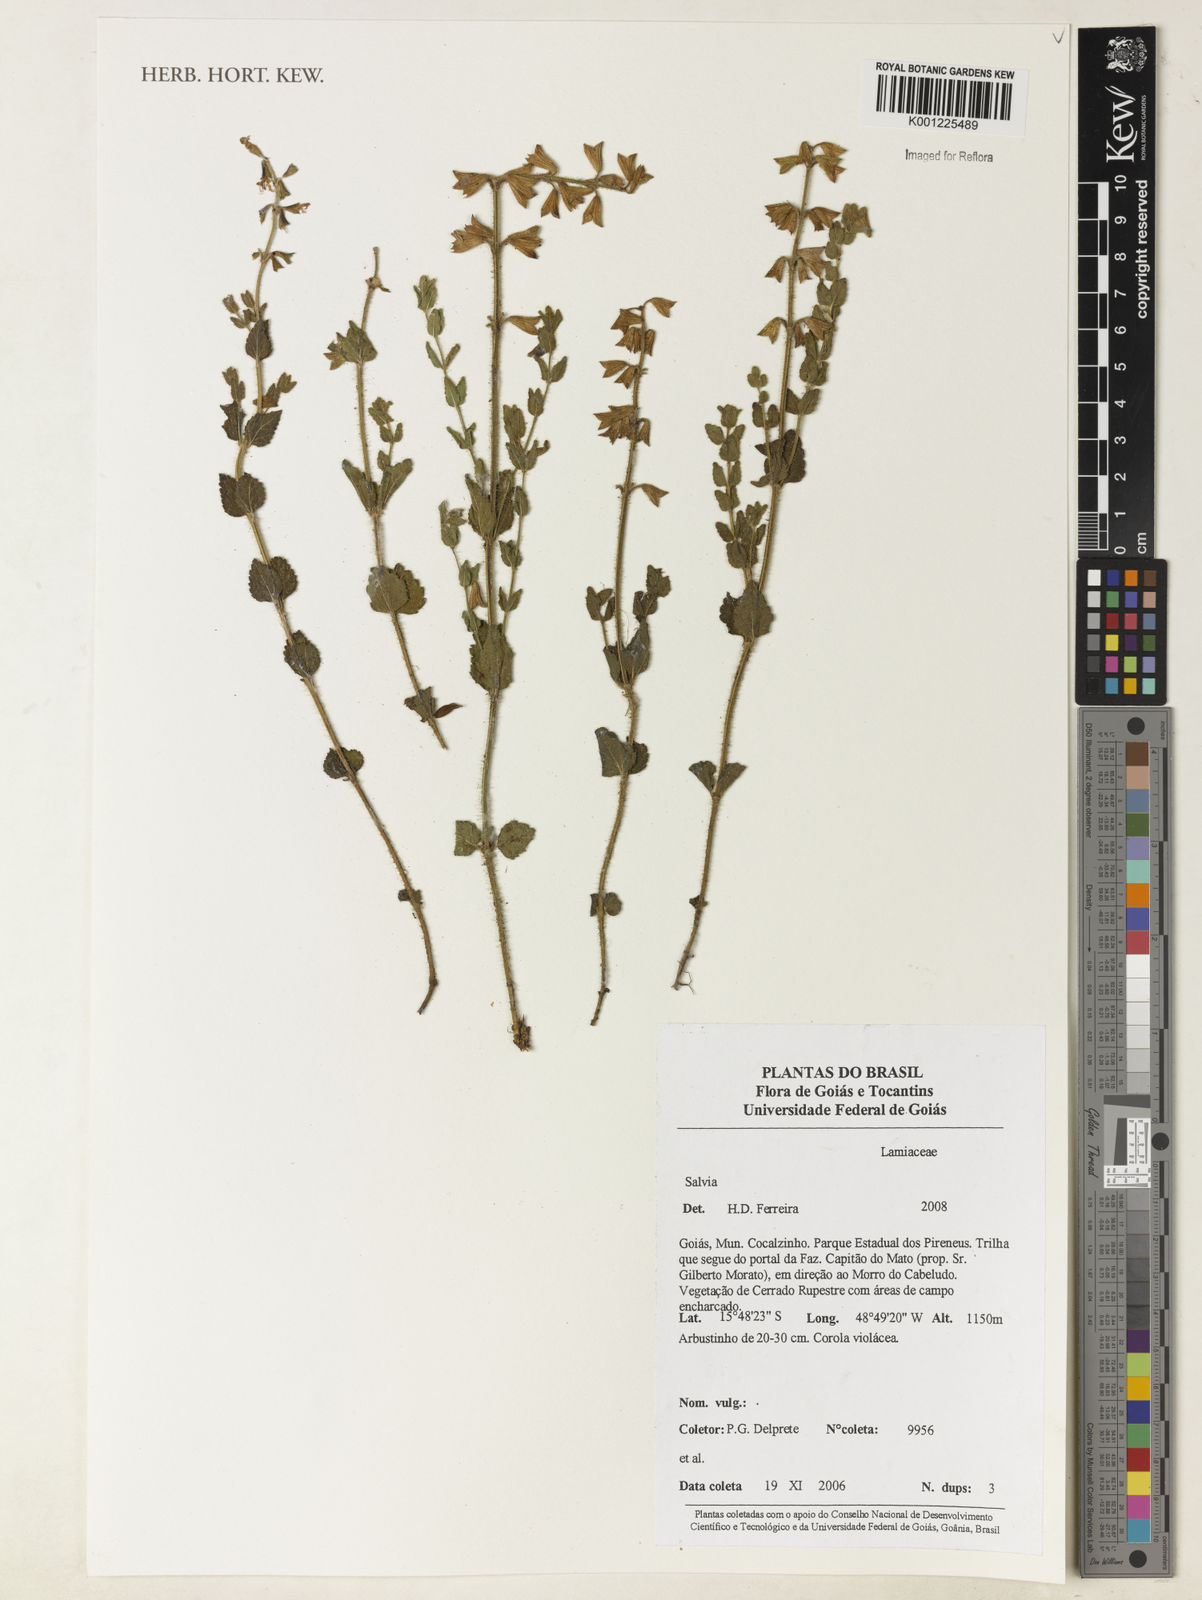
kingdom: Plantae
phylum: Tracheophyta
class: Magnoliopsida
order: Lamiales
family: Lamiaceae
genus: Salvia
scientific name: Salvia
